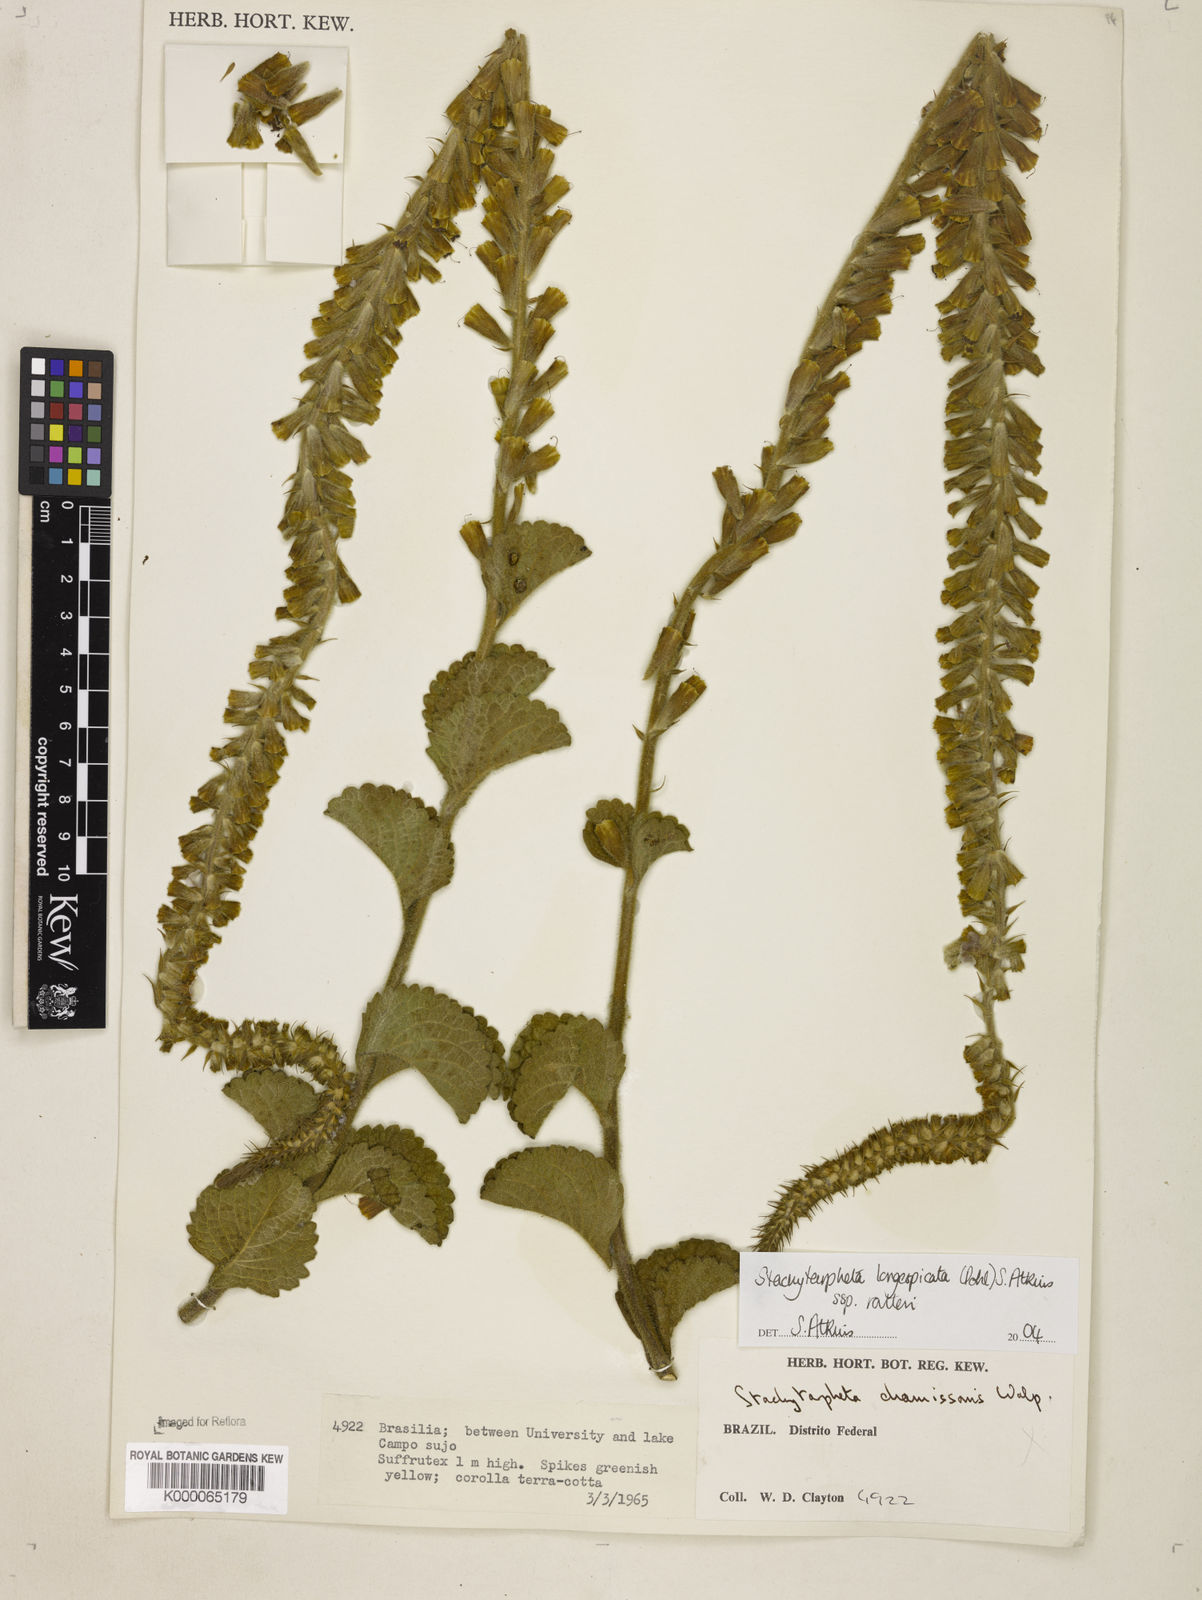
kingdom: Plantae
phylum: Tracheophyta
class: Magnoliopsida
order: Lamiales
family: Verbenaceae
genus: Stachytarpheta
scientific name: Stachytarpheta longispicata
